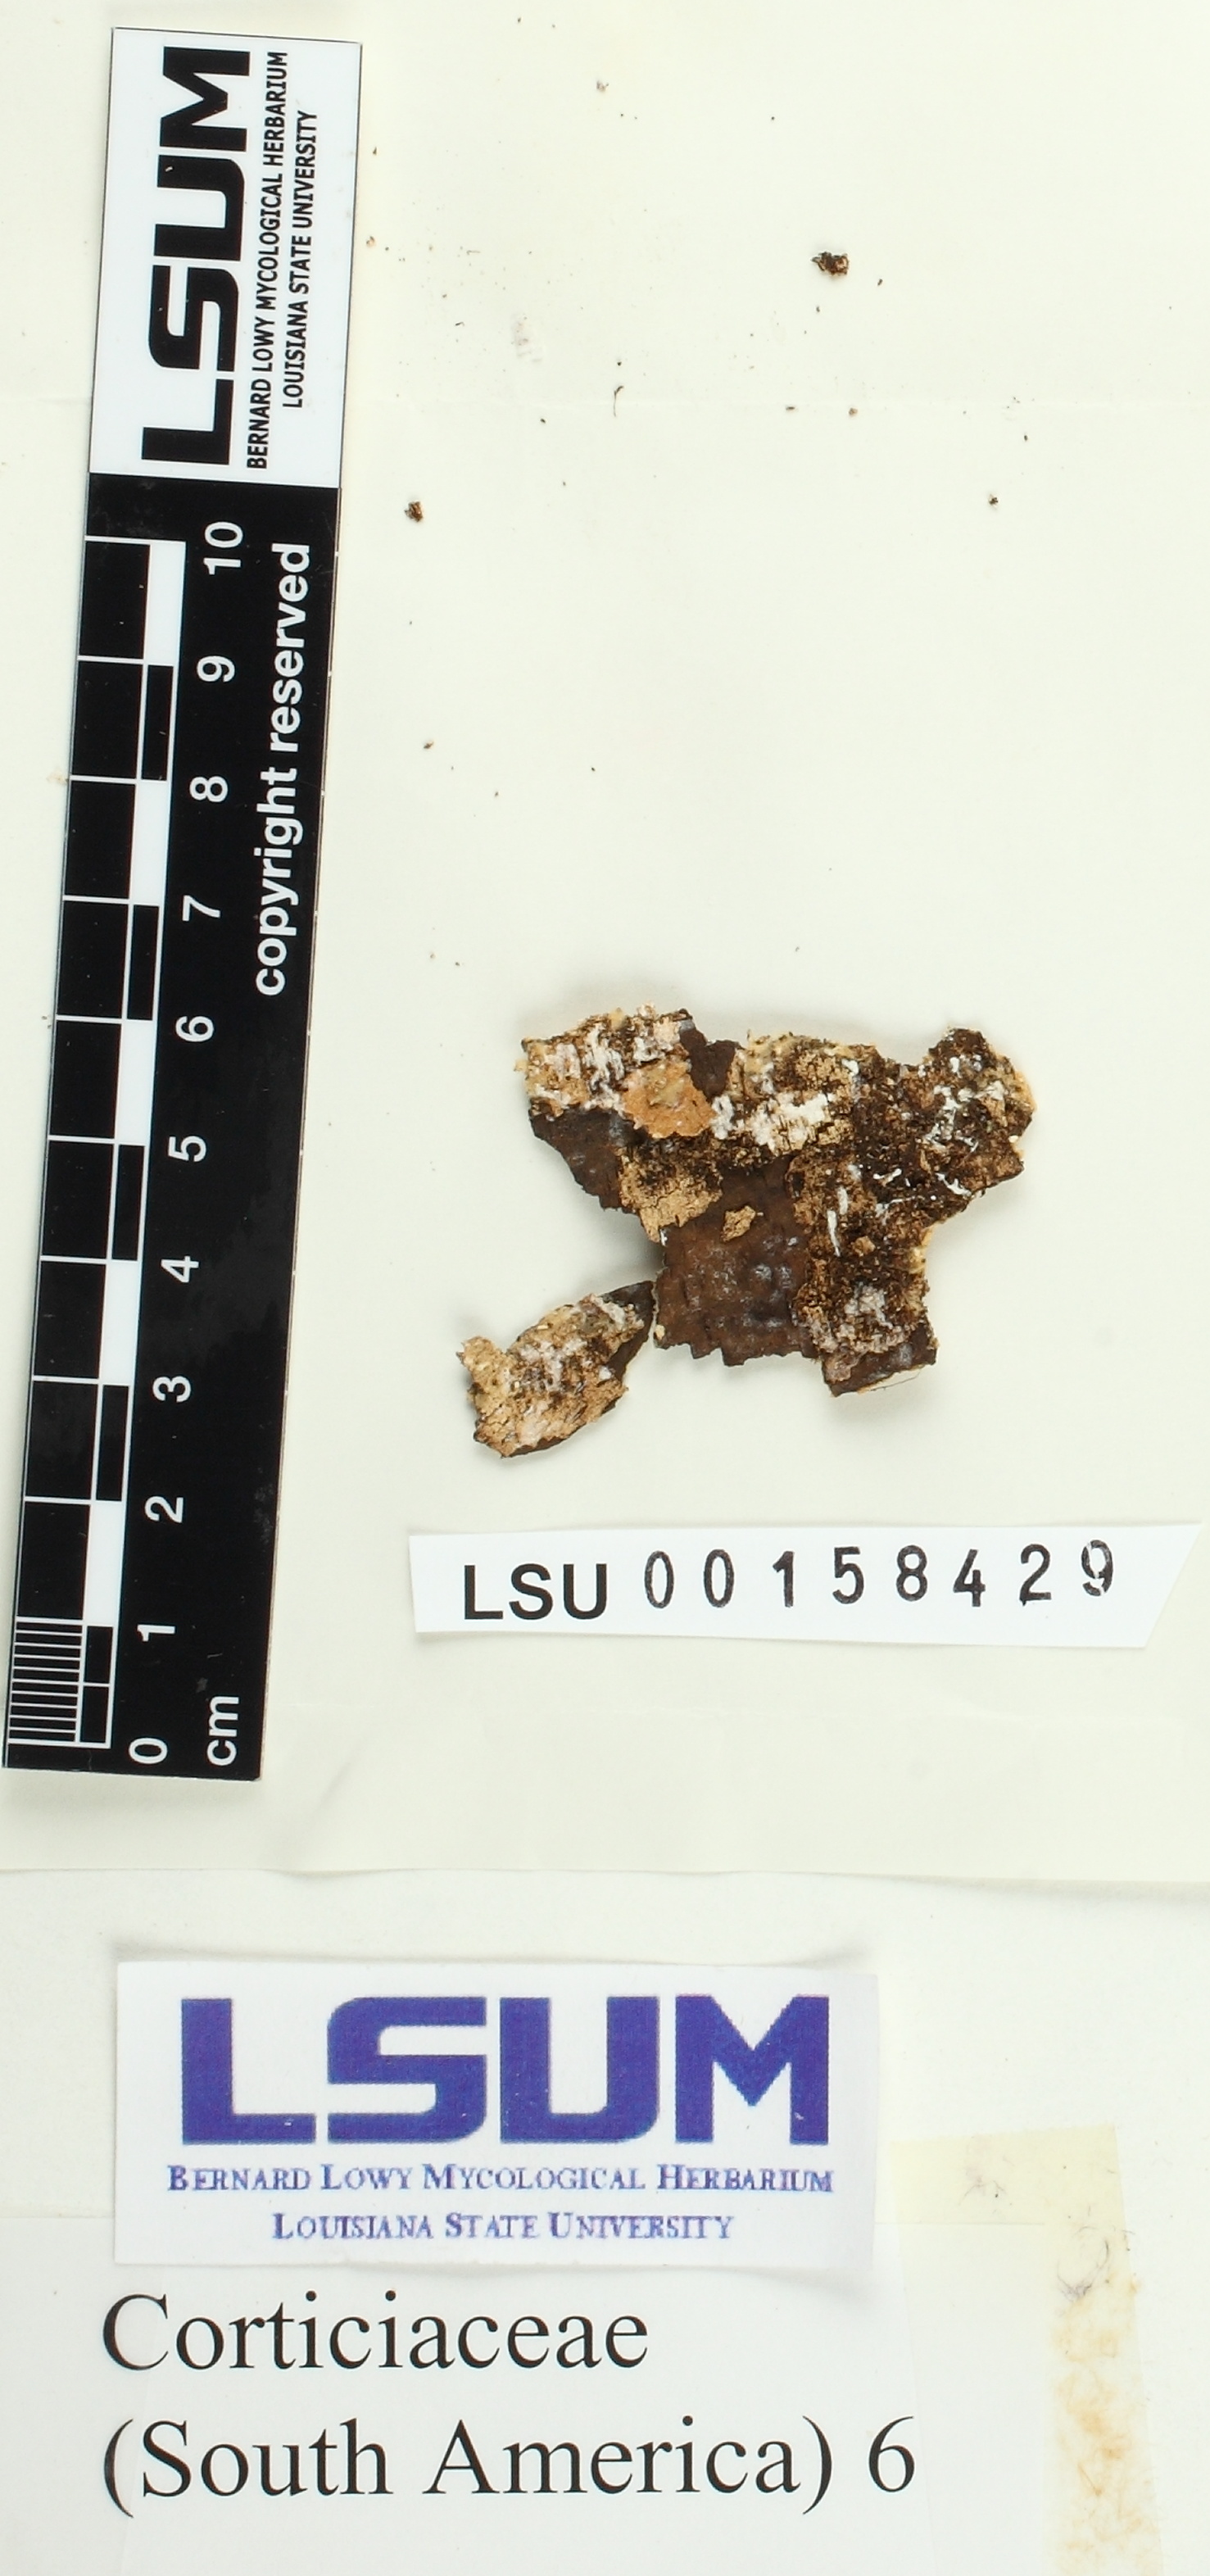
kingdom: Fungi
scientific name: Fungi
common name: Fungi
